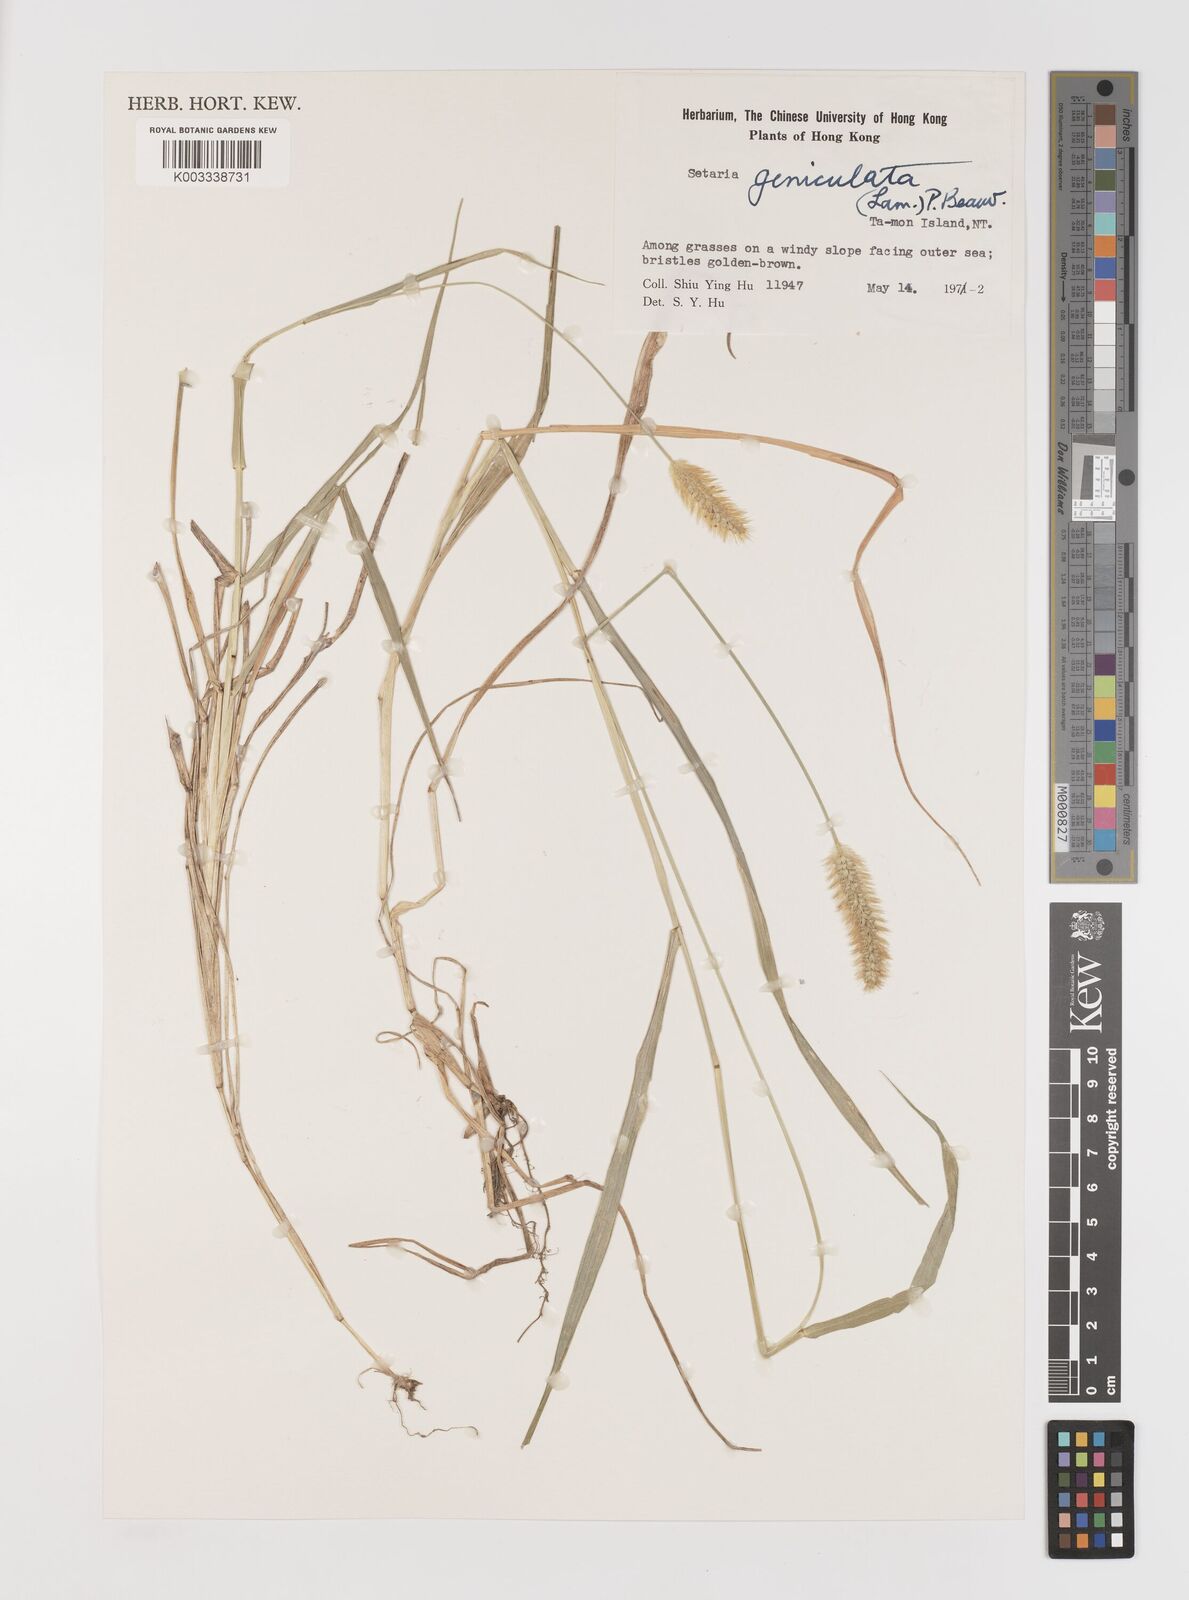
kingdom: Plantae
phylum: Tracheophyta
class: Liliopsida
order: Poales
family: Poaceae
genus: Setaria
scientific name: Setaria parviflora
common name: Knotroot bristle-grass
